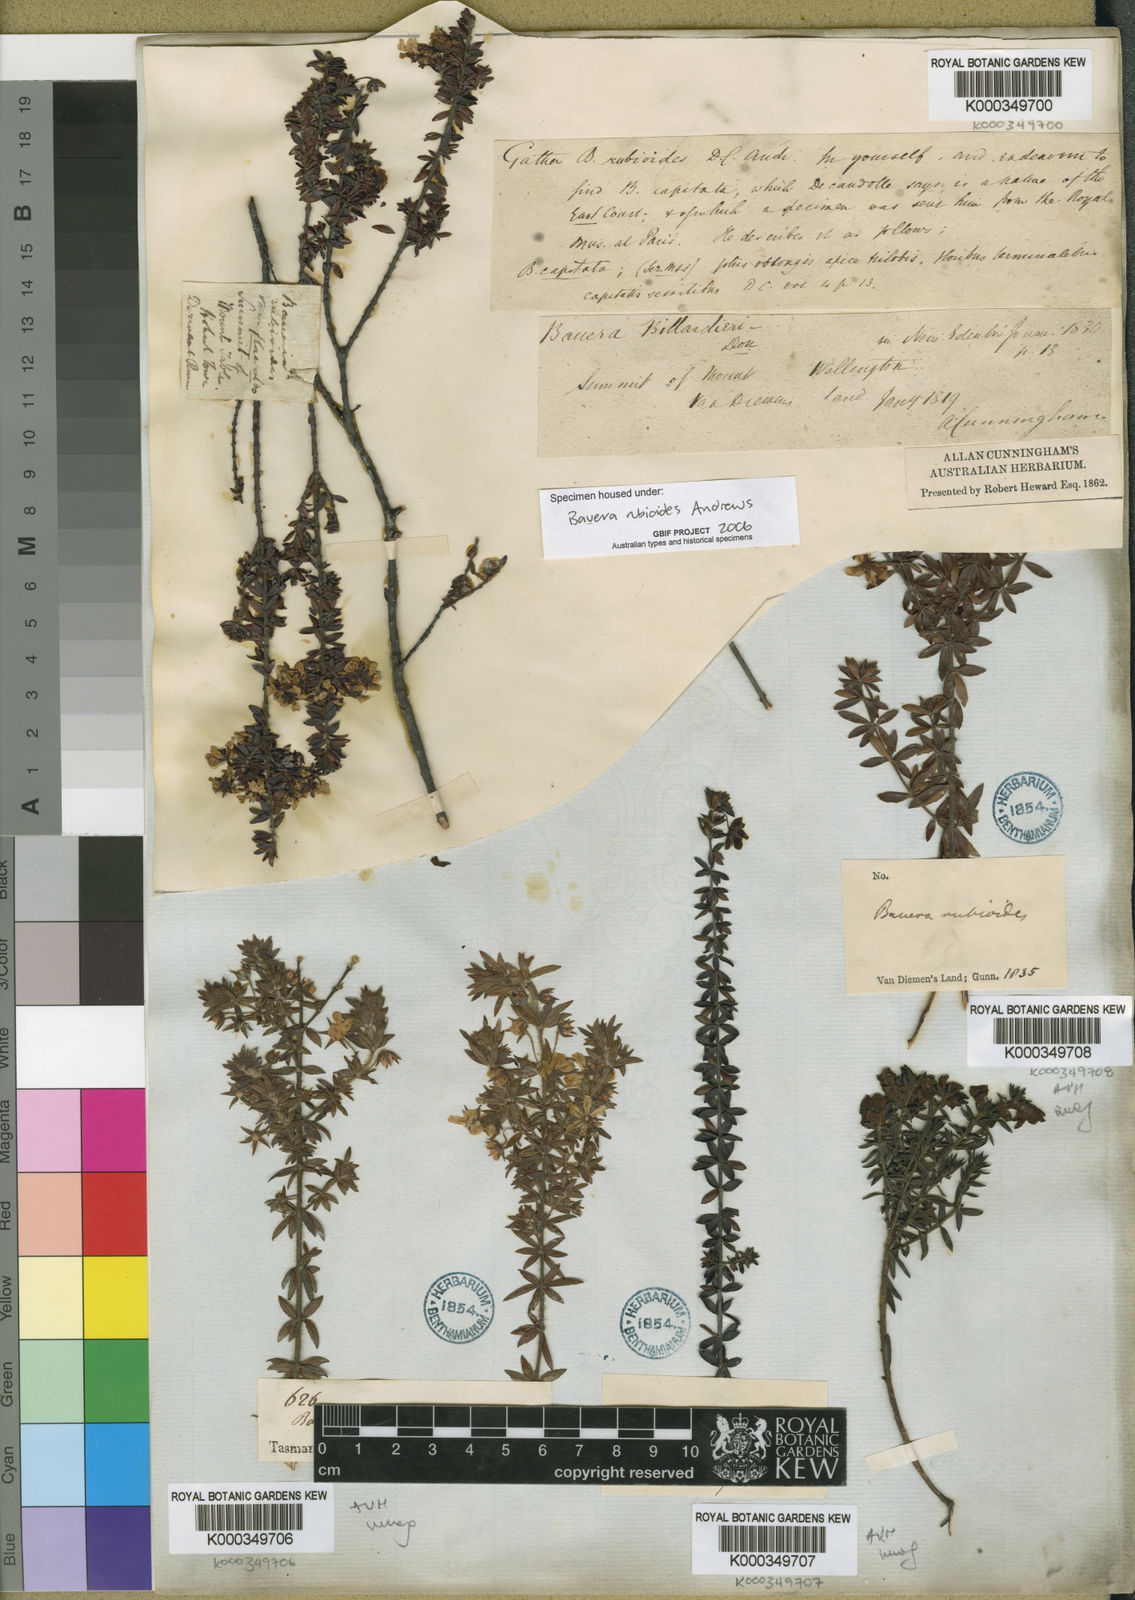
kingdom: Plantae
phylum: Tracheophyta
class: Magnoliopsida
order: Oxalidales
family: Cunoniaceae
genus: Bauera
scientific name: Bauera rubioides
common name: River-rose
